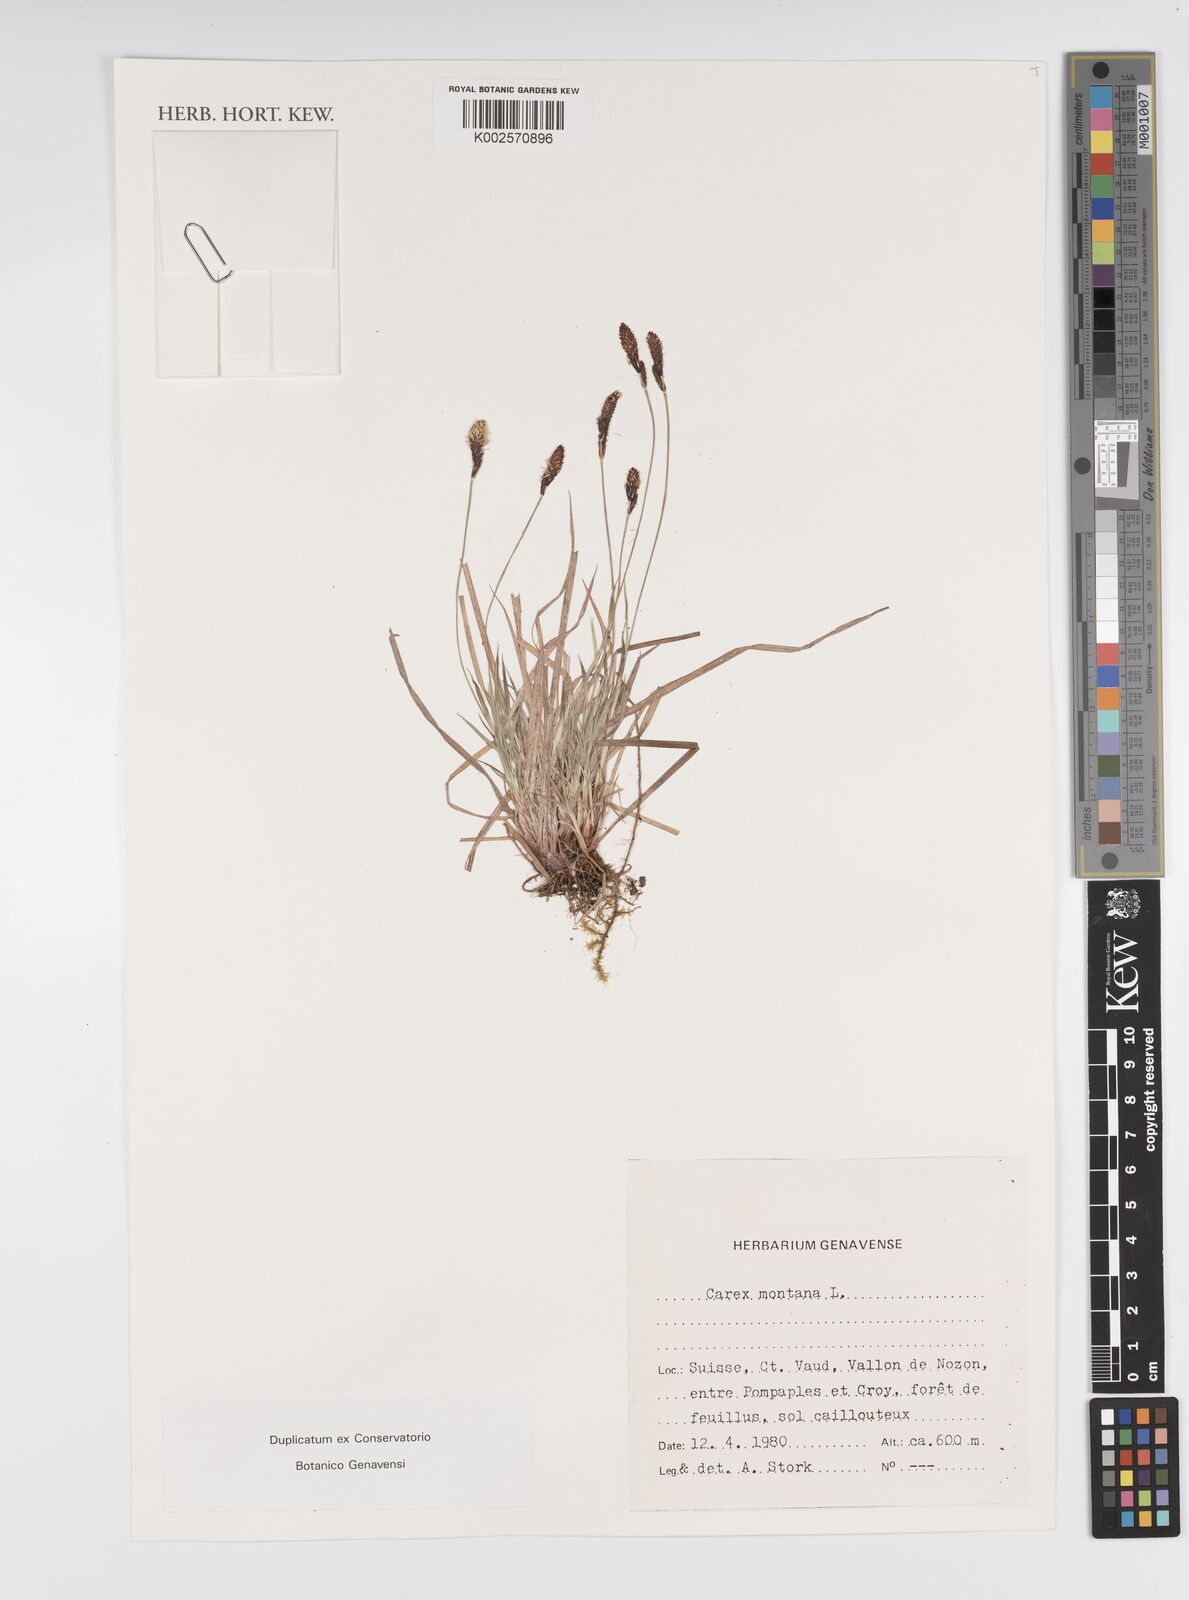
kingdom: Plantae
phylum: Tracheophyta
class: Liliopsida
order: Poales
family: Cyperaceae
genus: Carex
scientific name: Carex montana
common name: Soft-leaved sedge
